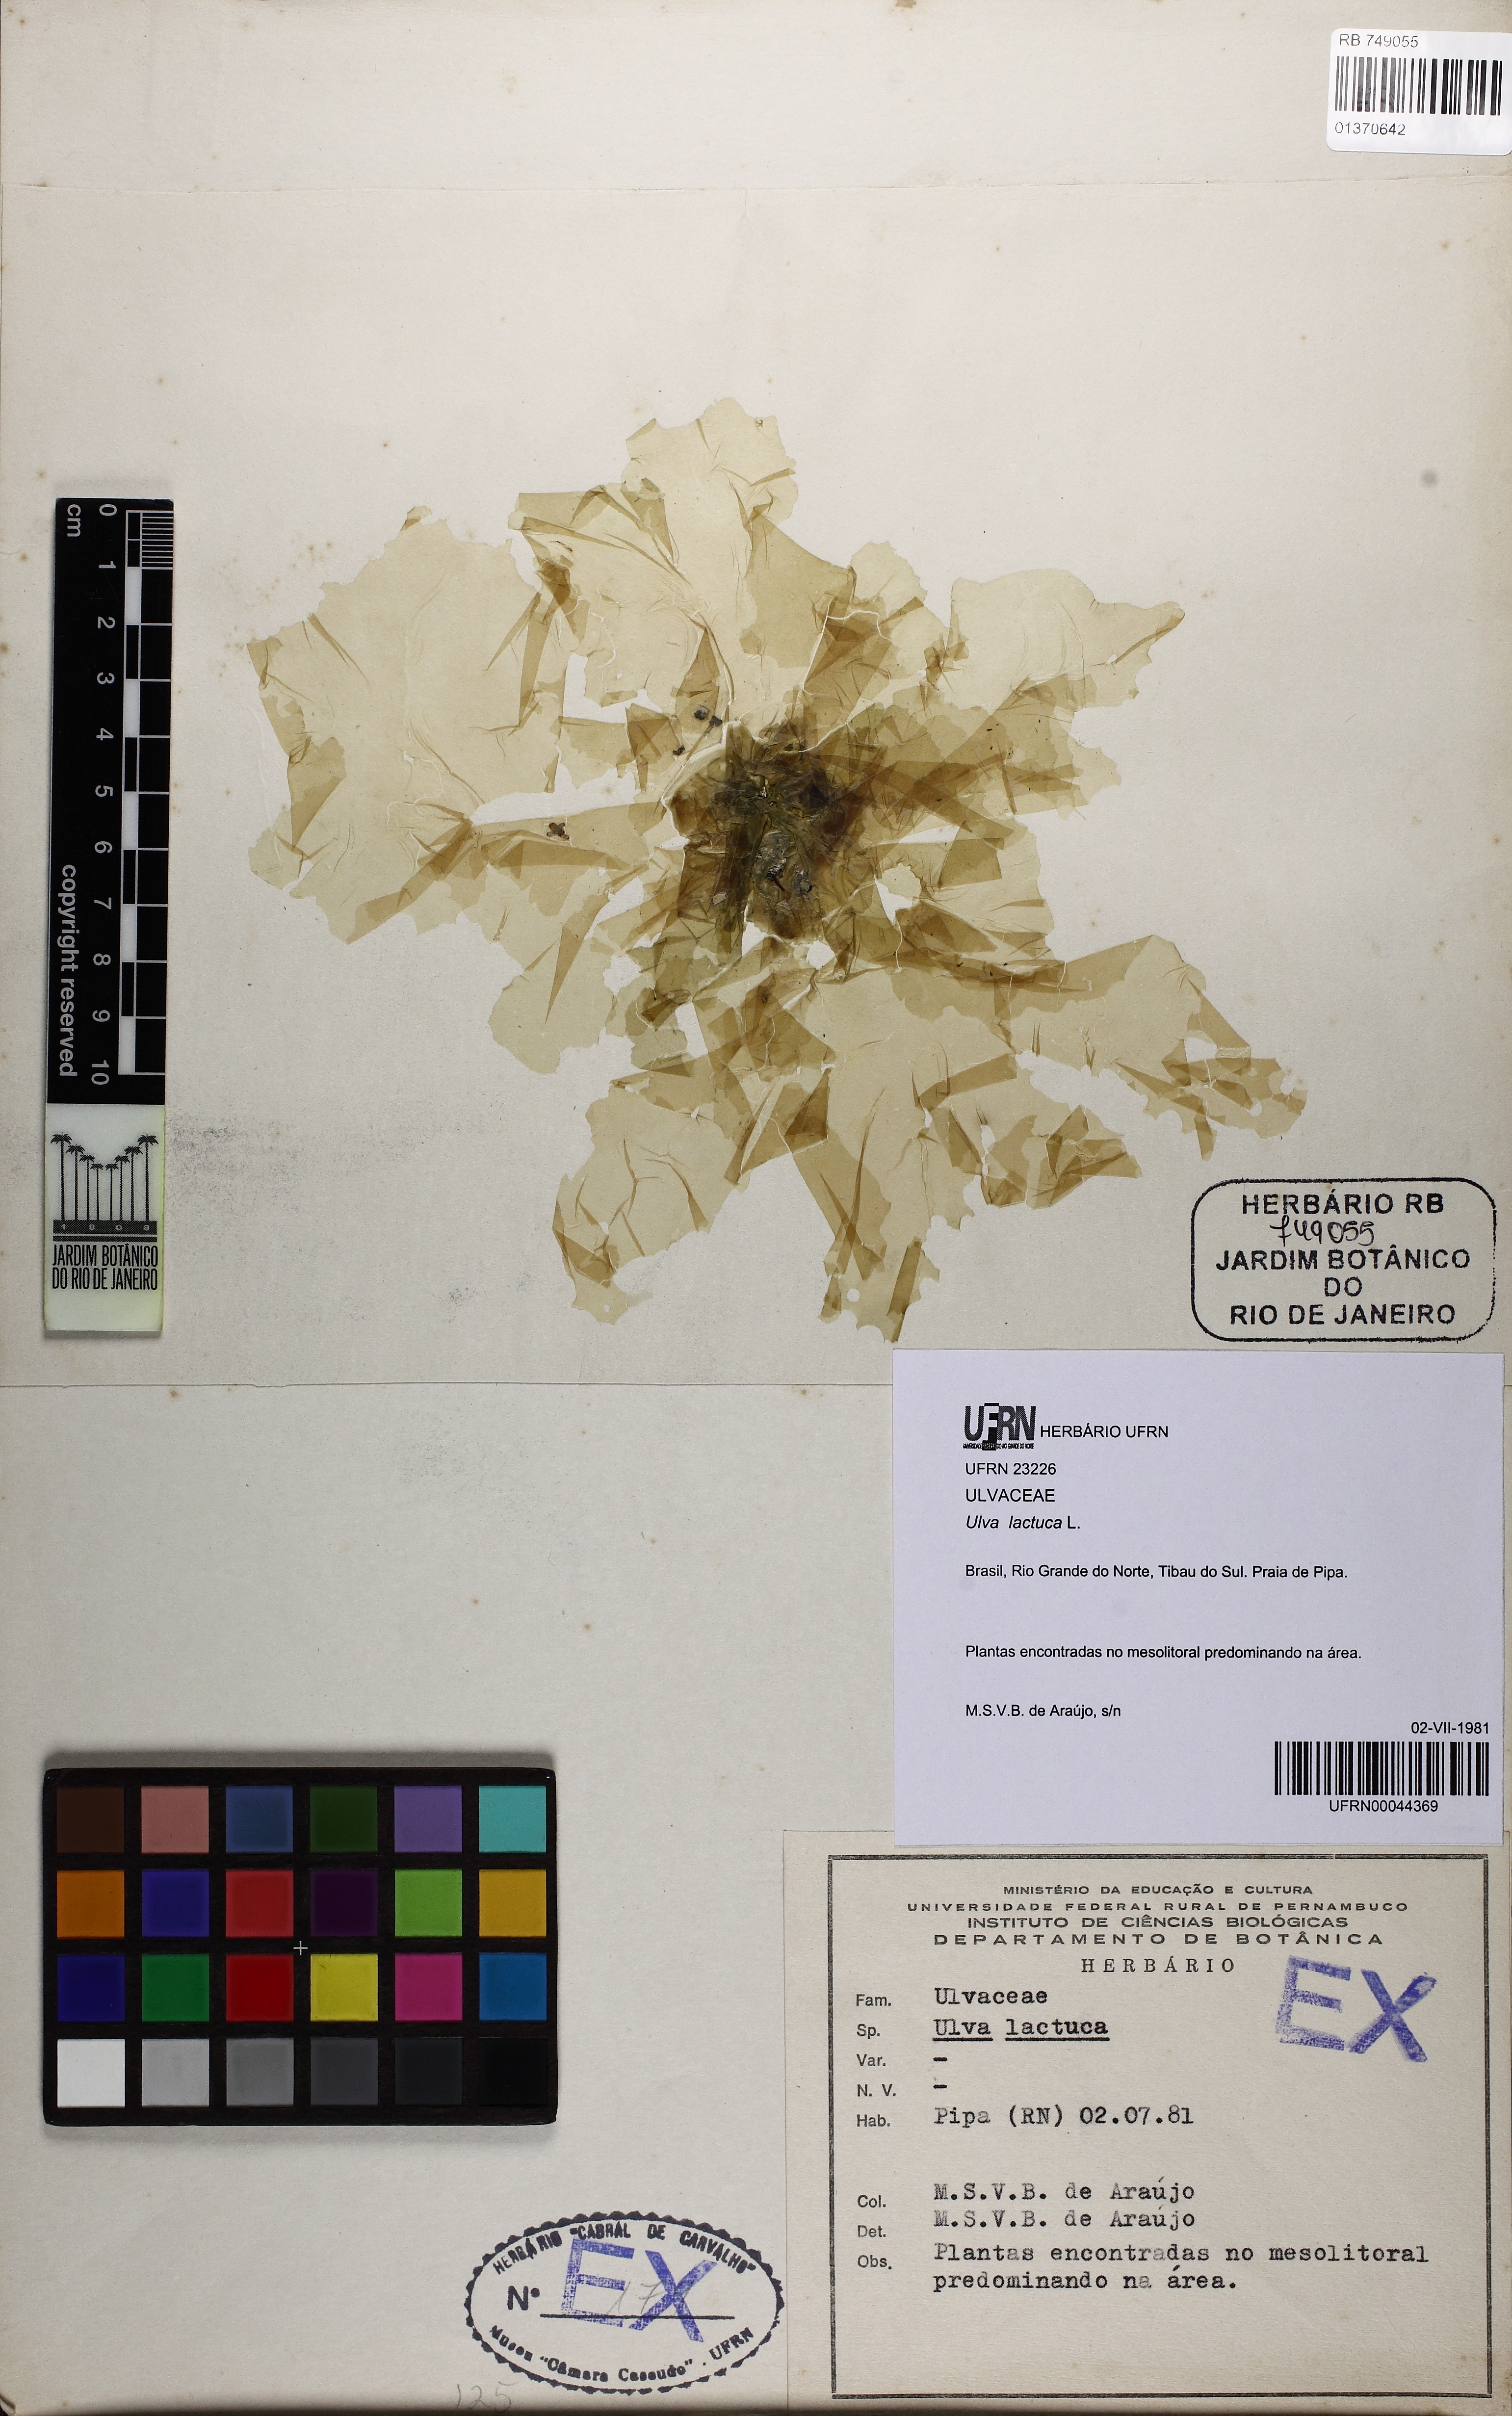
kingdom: Plantae
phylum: Chlorophyta
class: Ulvophyceae
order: Ulvales
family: Ulvaceae
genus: Ulva
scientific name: Ulva lactuca
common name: Sea lettuce
